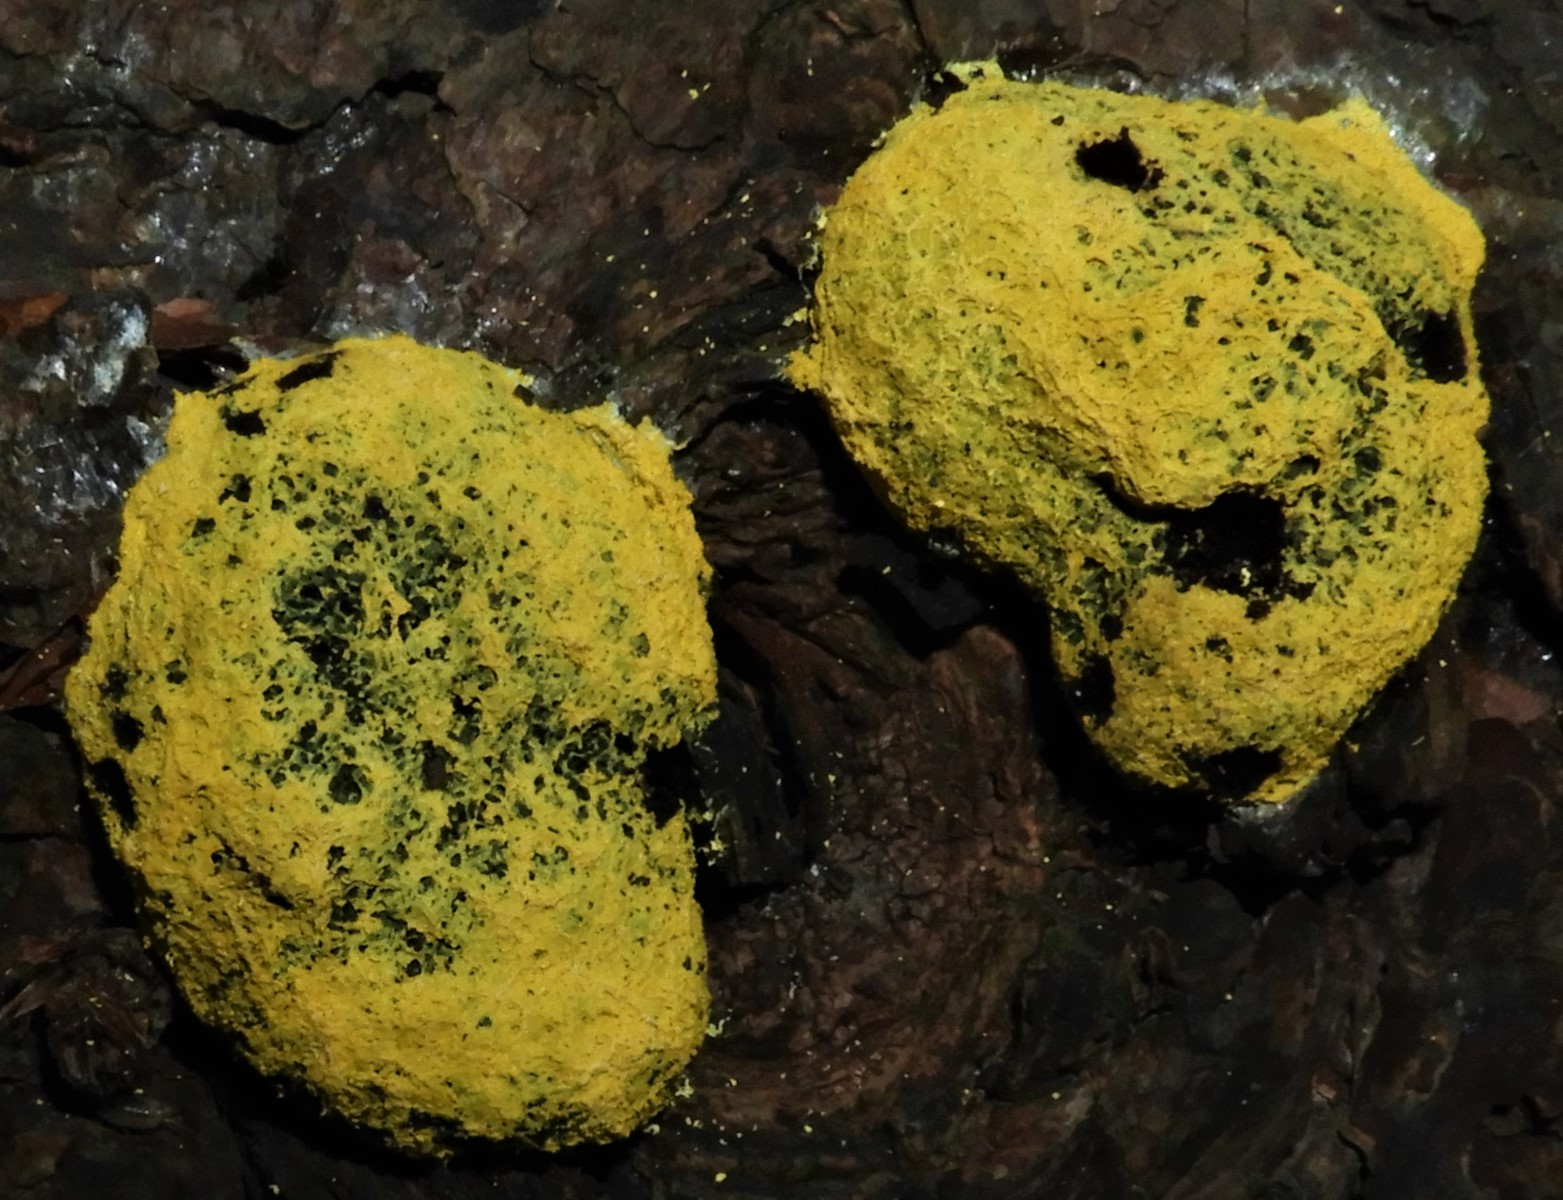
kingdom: Protozoa
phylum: Mycetozoa
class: Myxomycetes
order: Physarales
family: Physaraceae
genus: Fuligo
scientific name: Fuligo septica
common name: gul troldsmør
